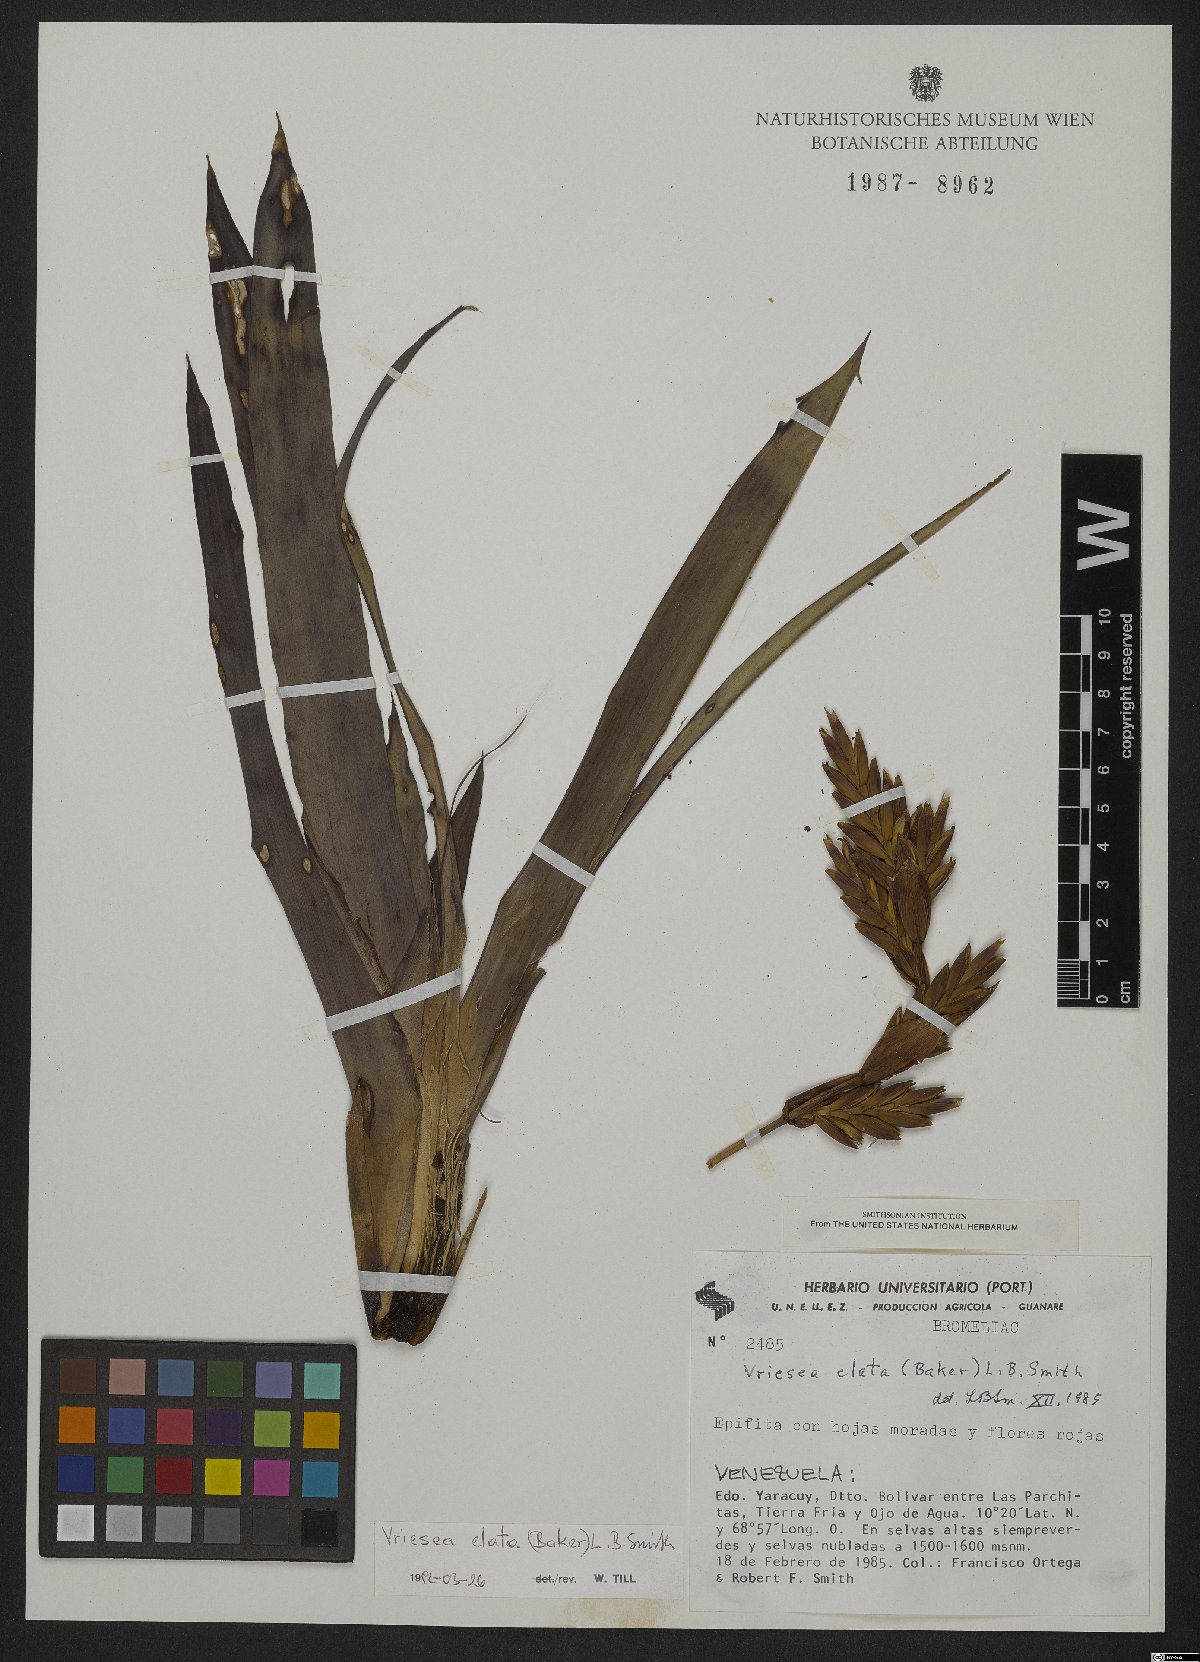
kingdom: Plantae
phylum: Tracheophyta
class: Liliopsida
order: Poales
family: Bromeliaceae
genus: Vriesea
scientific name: Vriesea elata
